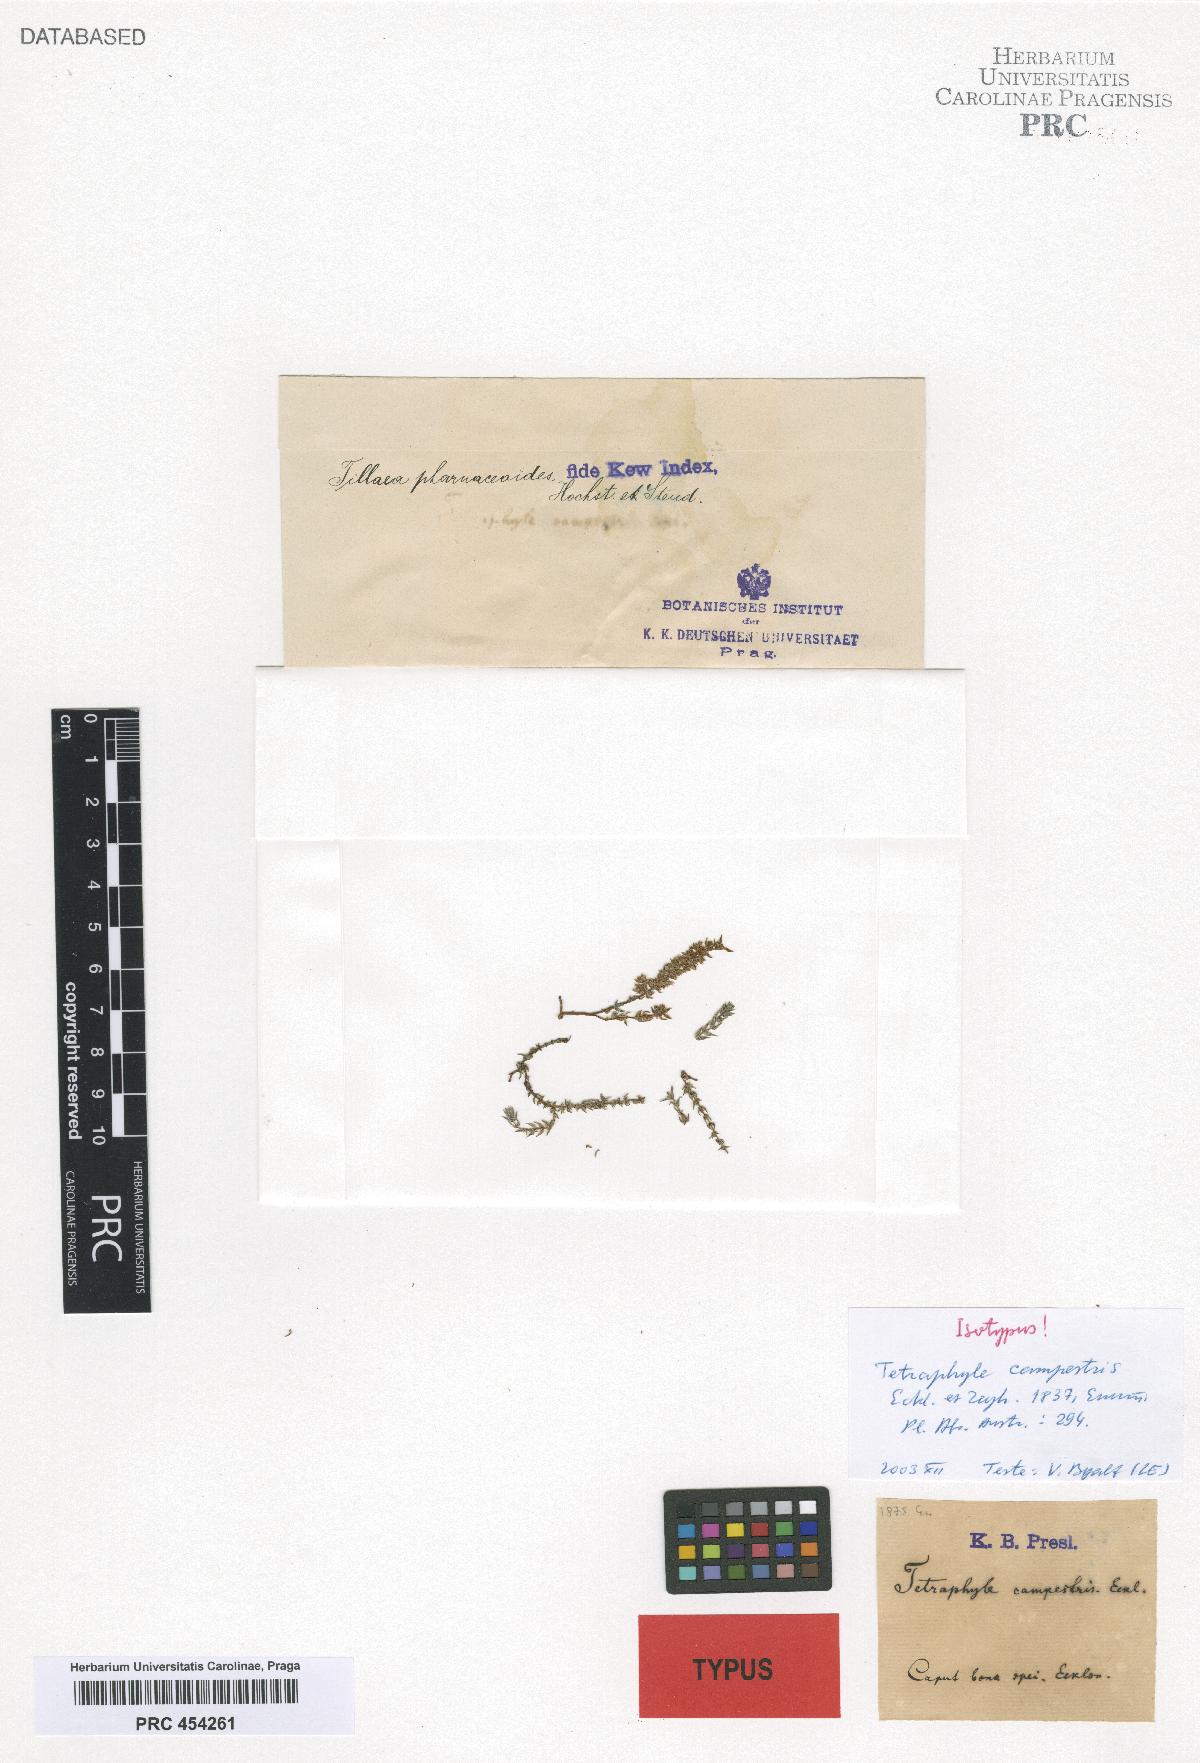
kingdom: Plantae
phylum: Tracheophyta
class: Magnoliopsida
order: Saxifragales
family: Crassulaceae
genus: Crassula
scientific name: Crassula campestris
